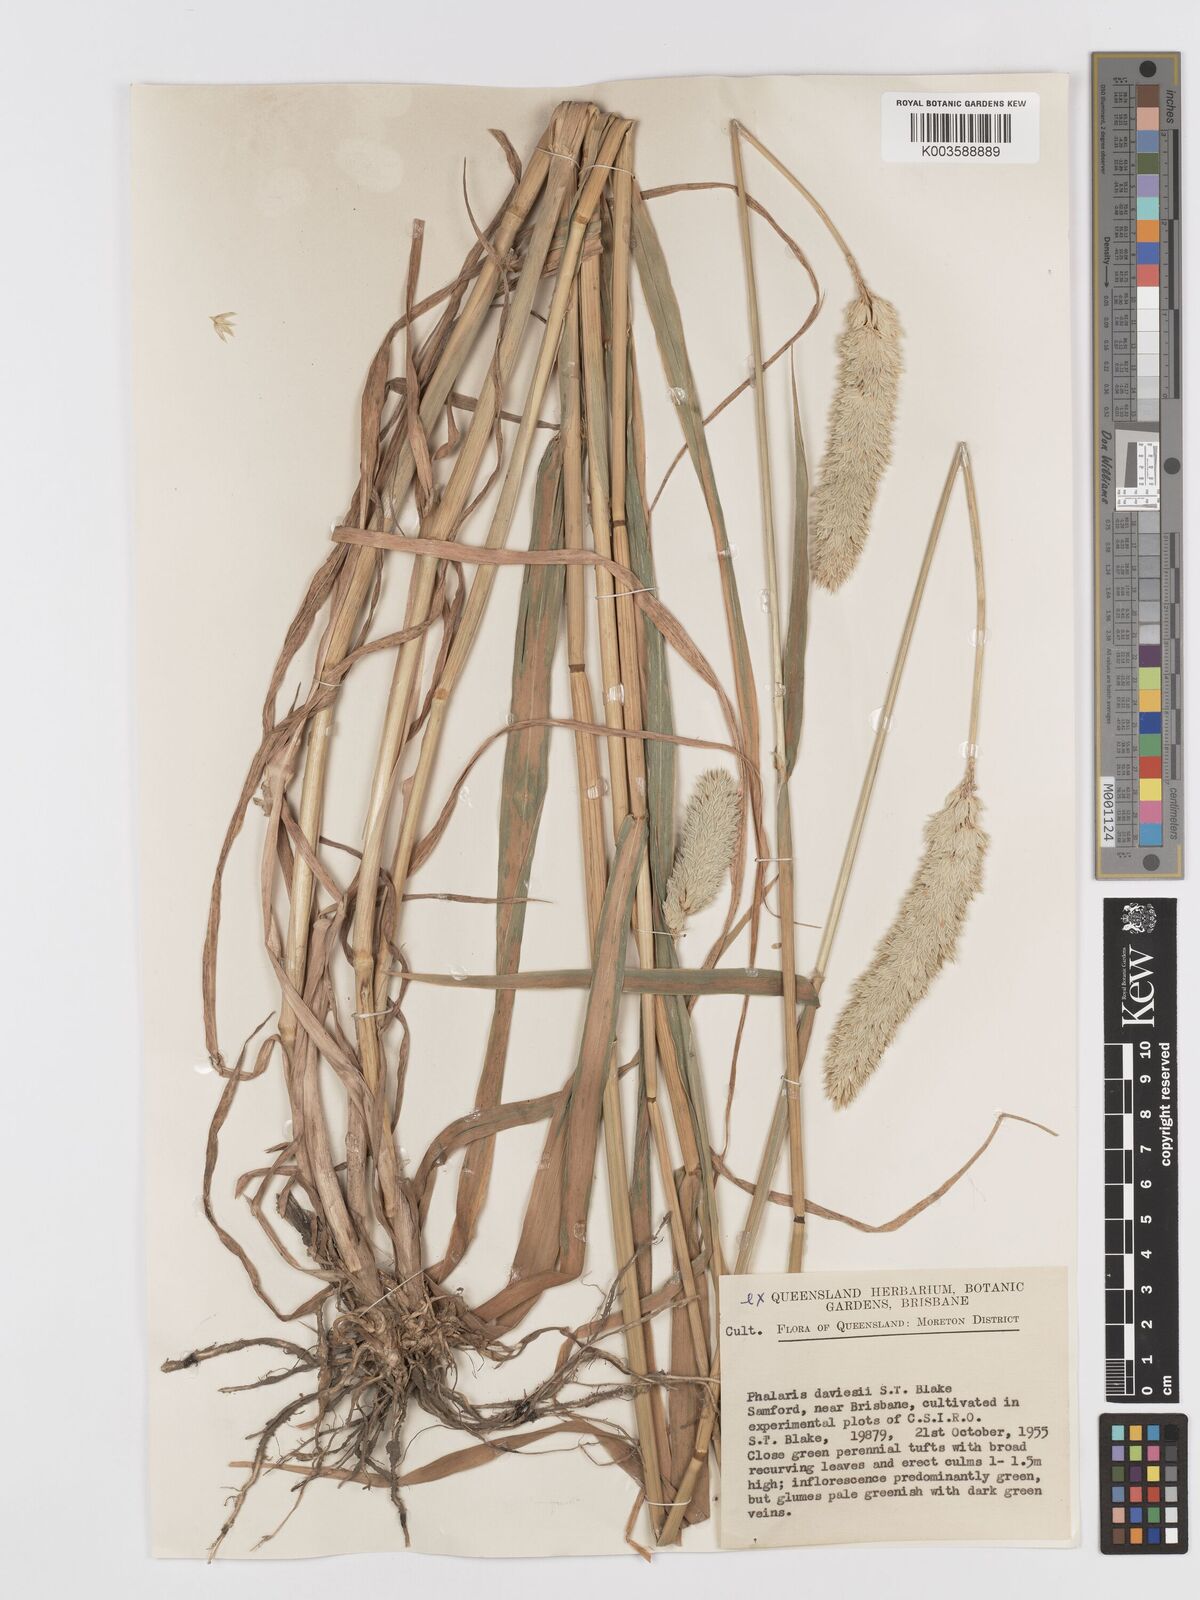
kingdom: Plantae
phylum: Tracheophyta
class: Liliopsida
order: Poales
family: Poaceae
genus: Phalaris
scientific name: Phalaris daviesii
